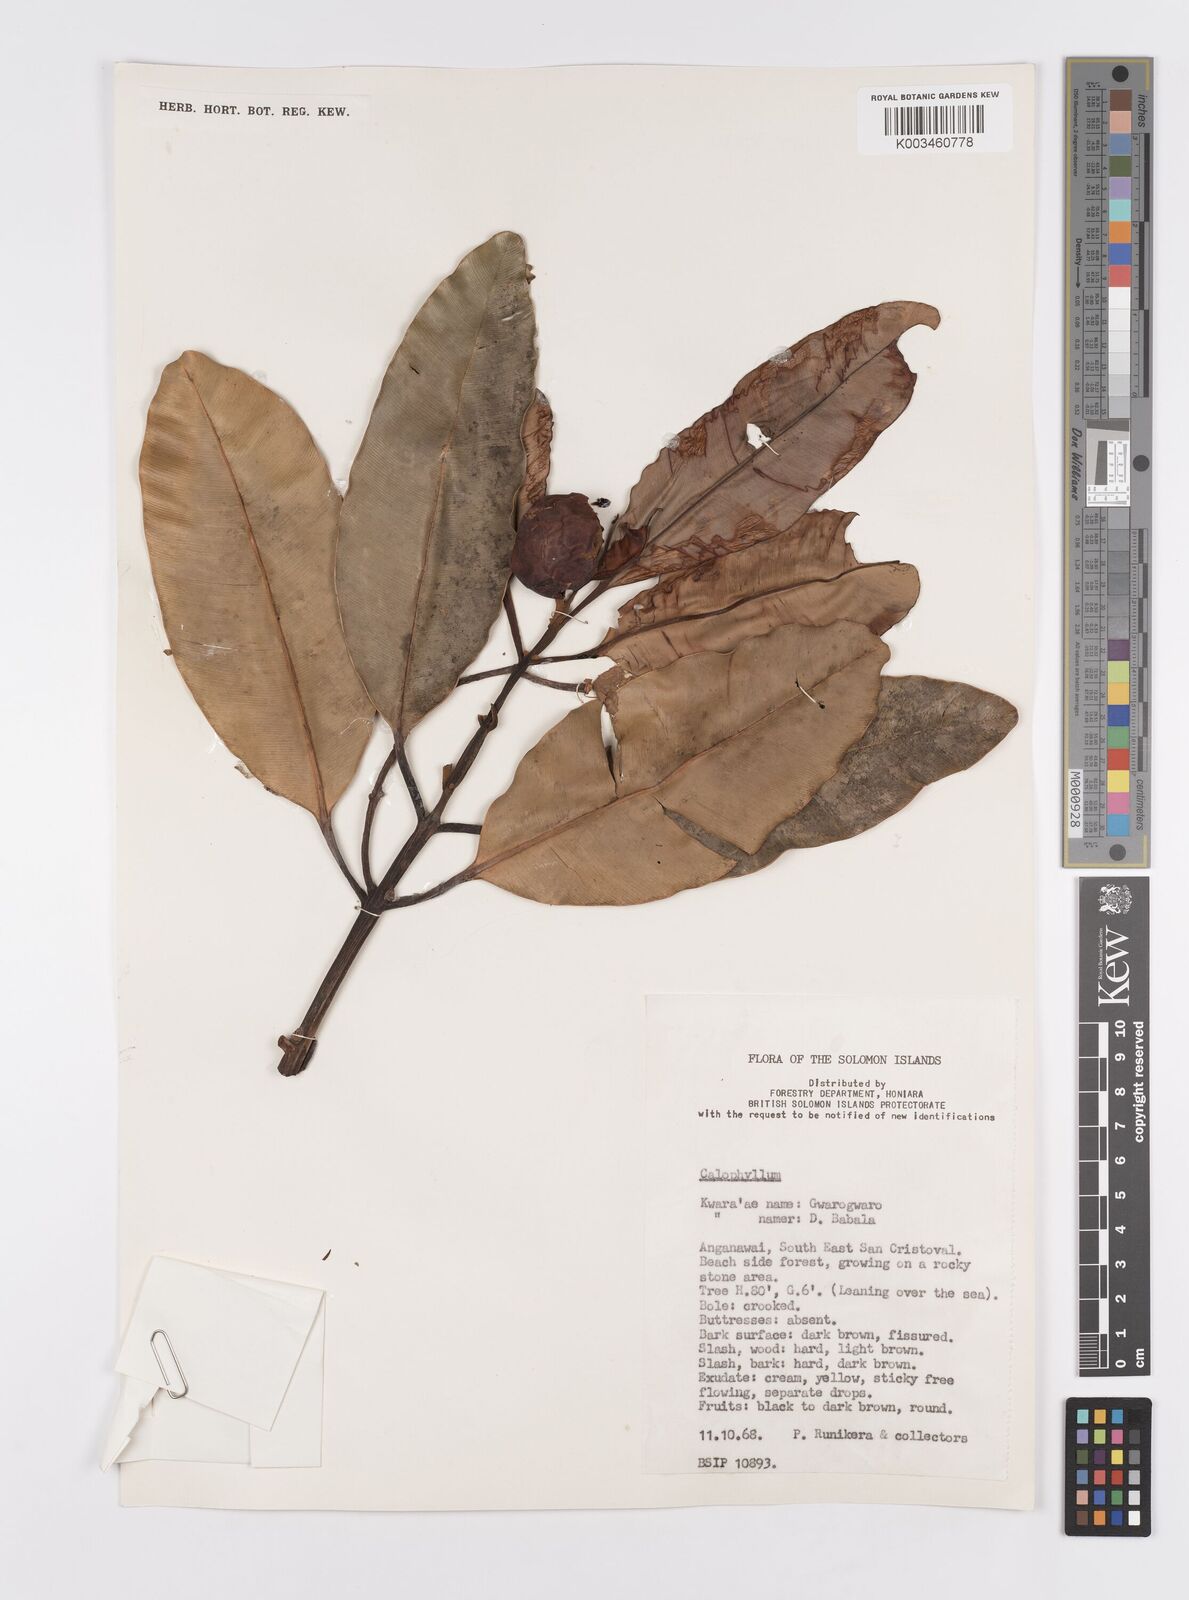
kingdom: Plantae
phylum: Tracheophyta
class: Magnoliopsida
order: Malpighiales
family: Calophyllaceae
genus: Calophyllum
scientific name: Calophyllum
